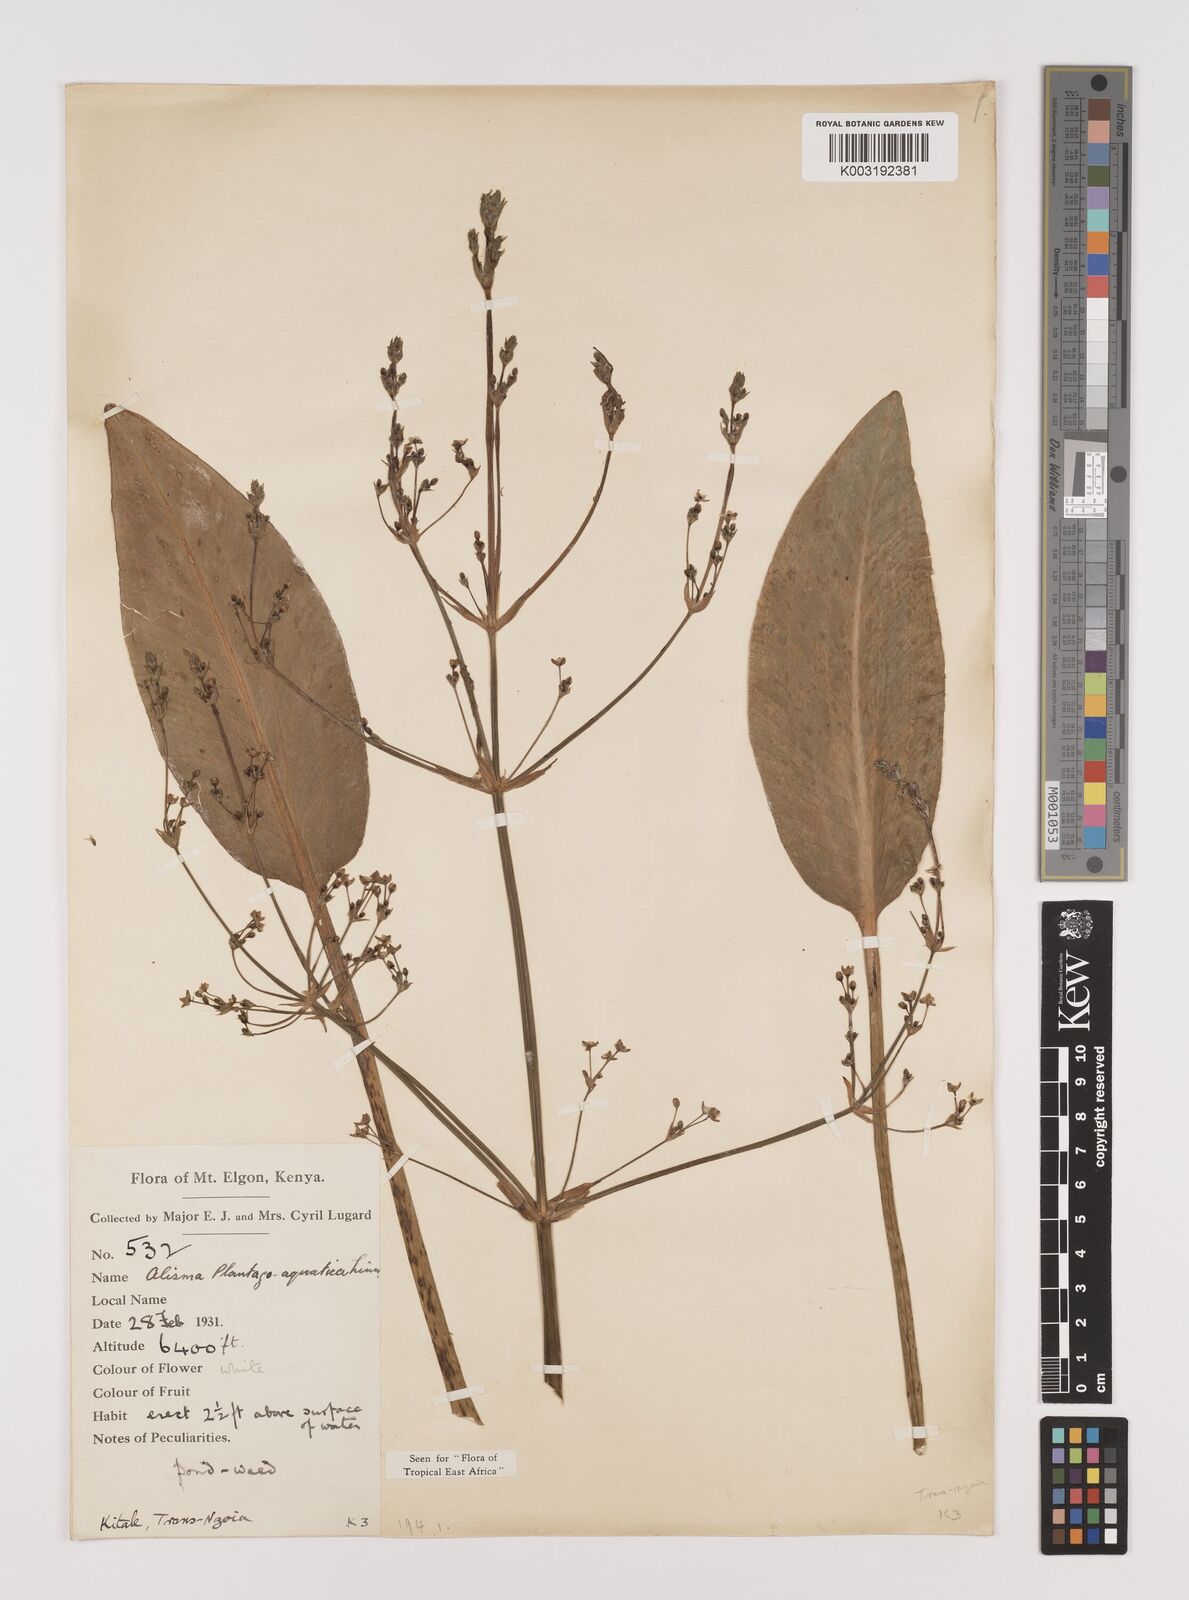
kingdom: Plantae
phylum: Tracheophyta
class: Liliopsida
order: Alismatales
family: Alismataceae
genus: Alisma
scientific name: Alisma plantago-aquatica
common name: Water-plantain
